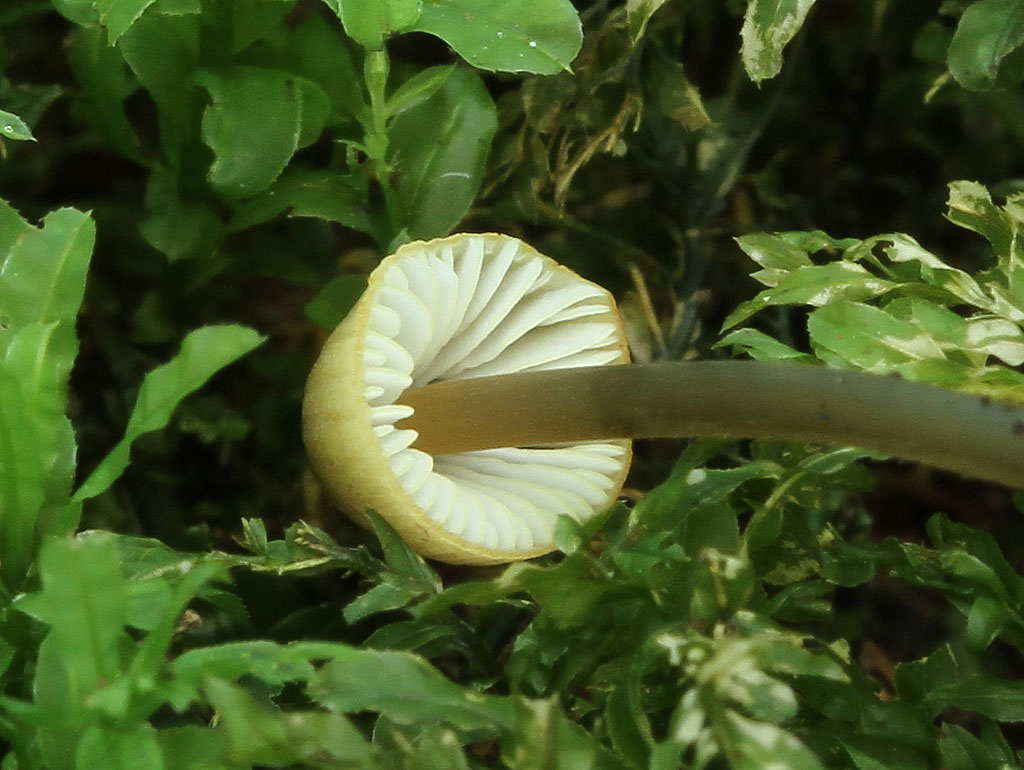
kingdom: Fungi
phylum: Basidiomycota
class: Agaricomycetes
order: Agaricales
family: Mycenaceae
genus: Mycena
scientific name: Mycena citrinomarginata
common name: gulægget huesvamp
